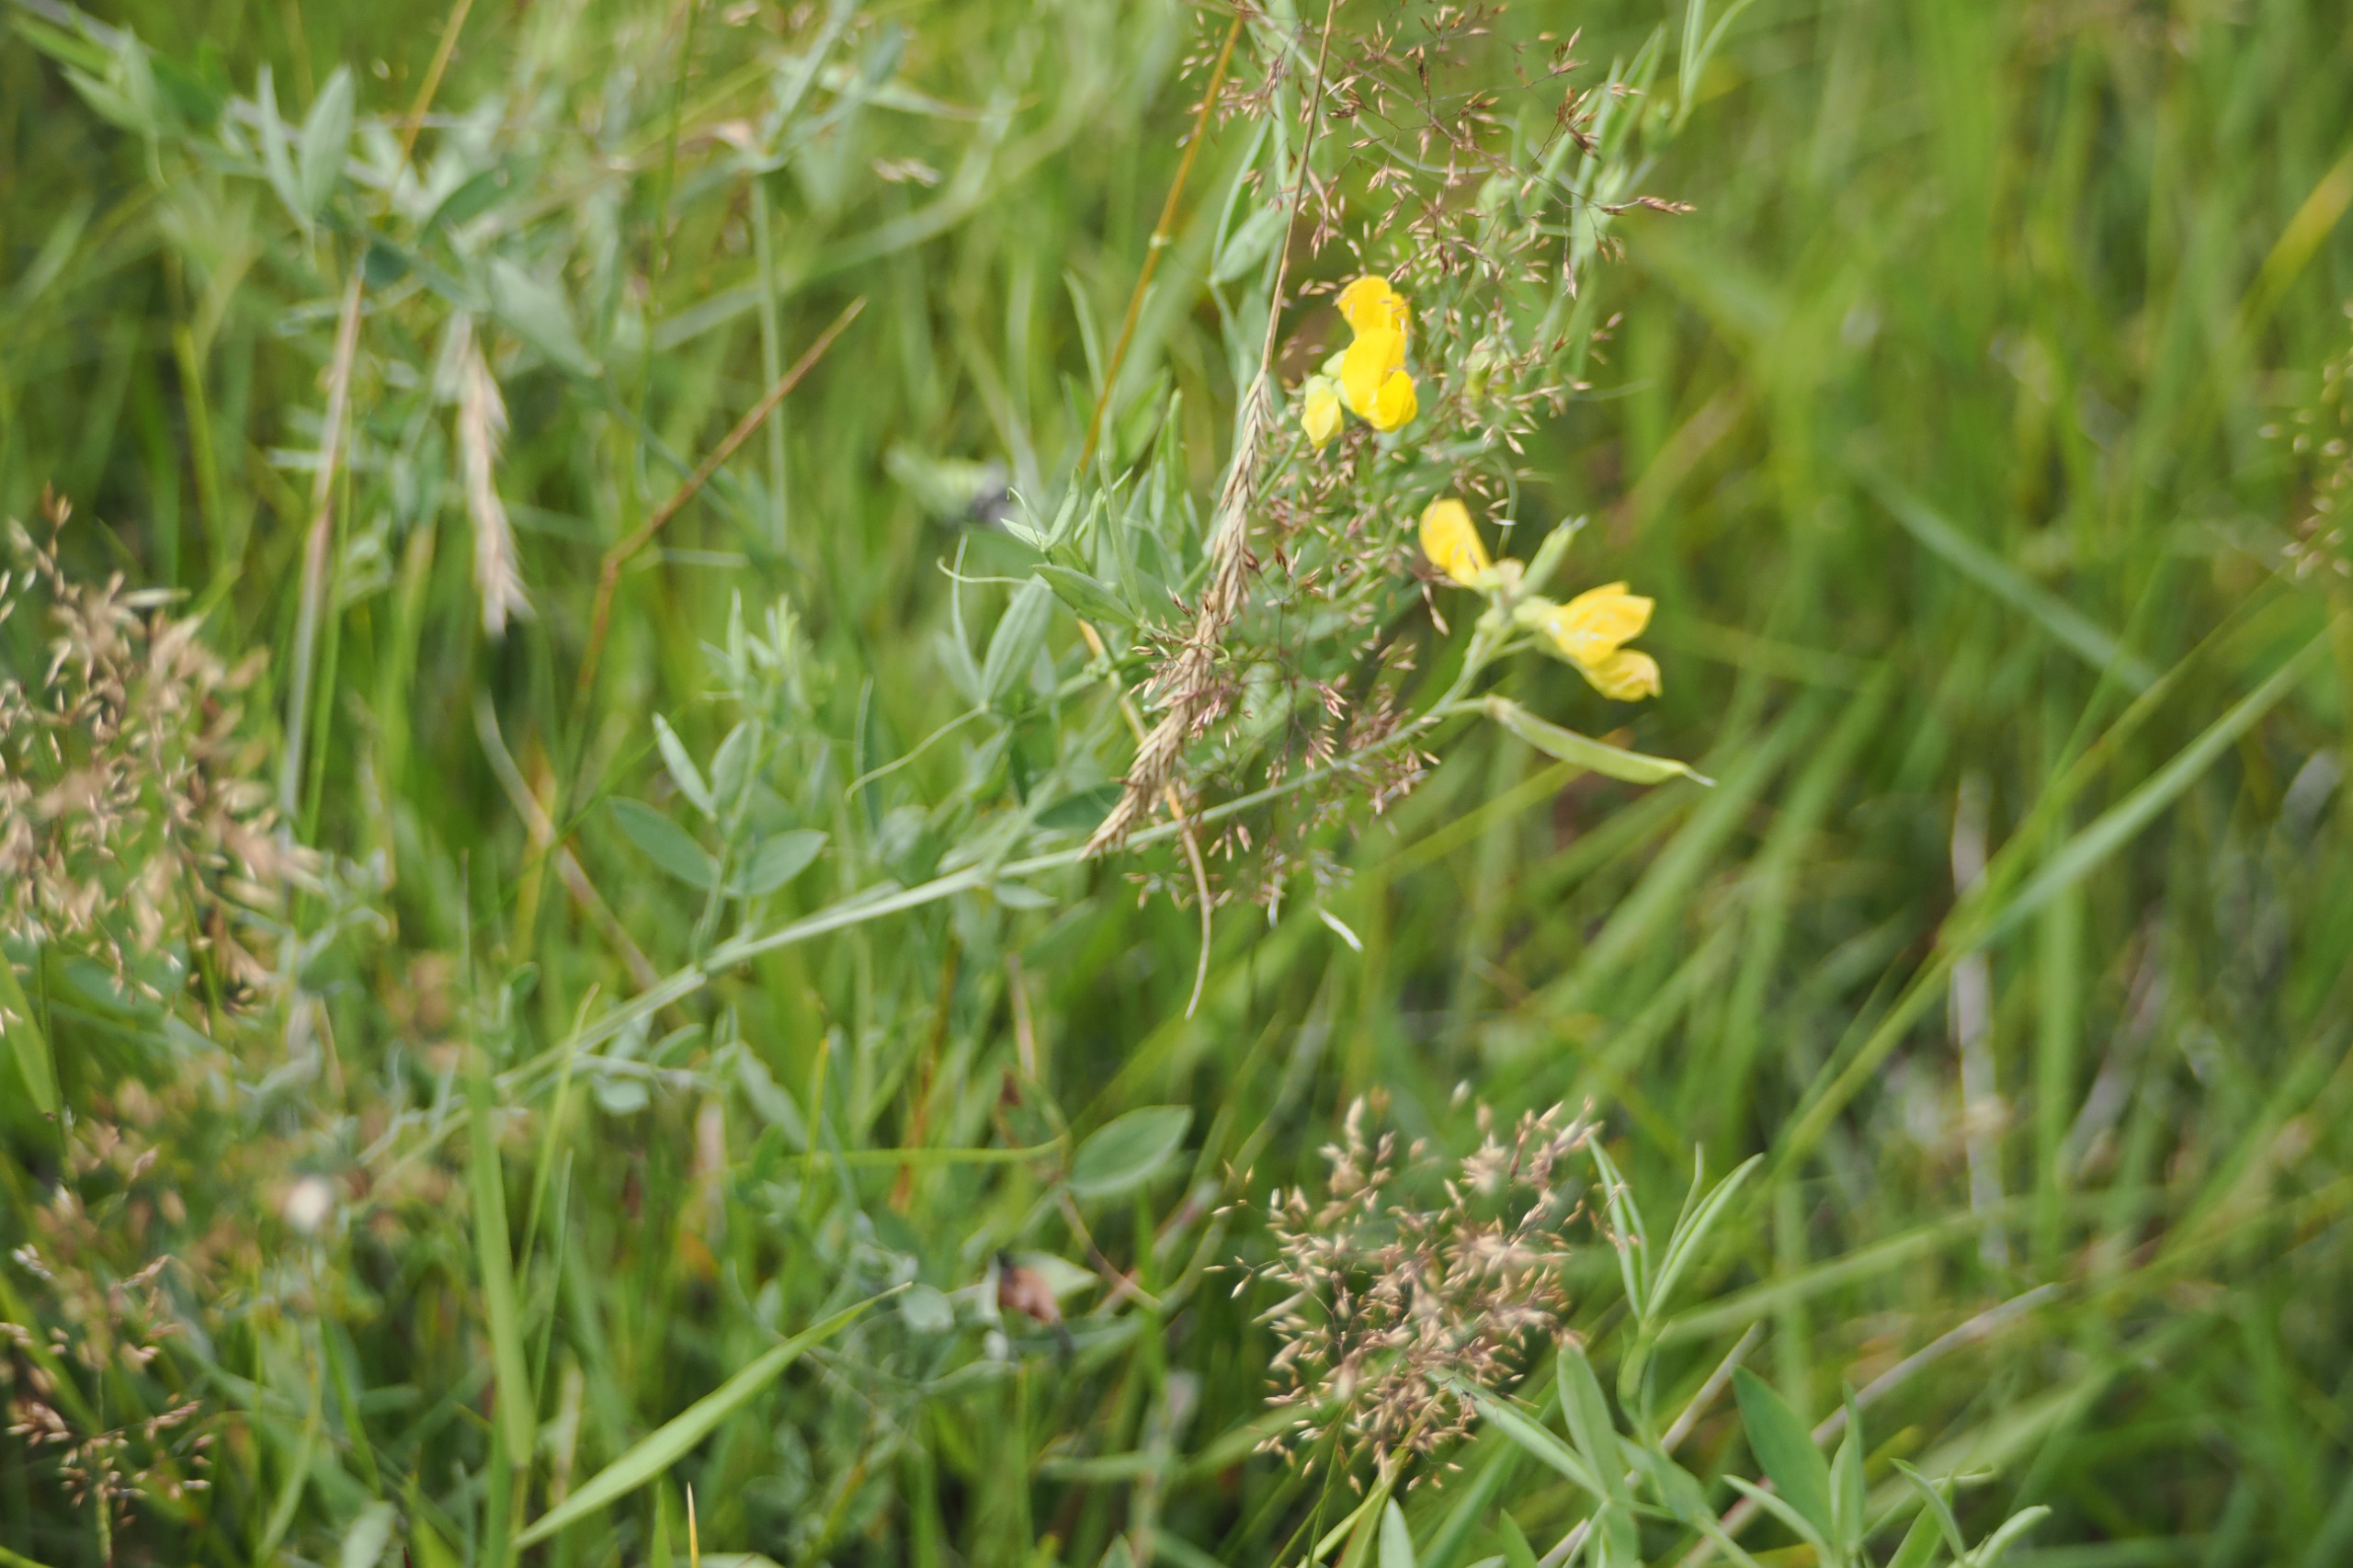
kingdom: Plantae
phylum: Tracheophyta
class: Magnoliopsida
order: Fabales
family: Fabaceae
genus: Lathyrus
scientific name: Lathyrus pratensis
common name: Gul fladbælg
